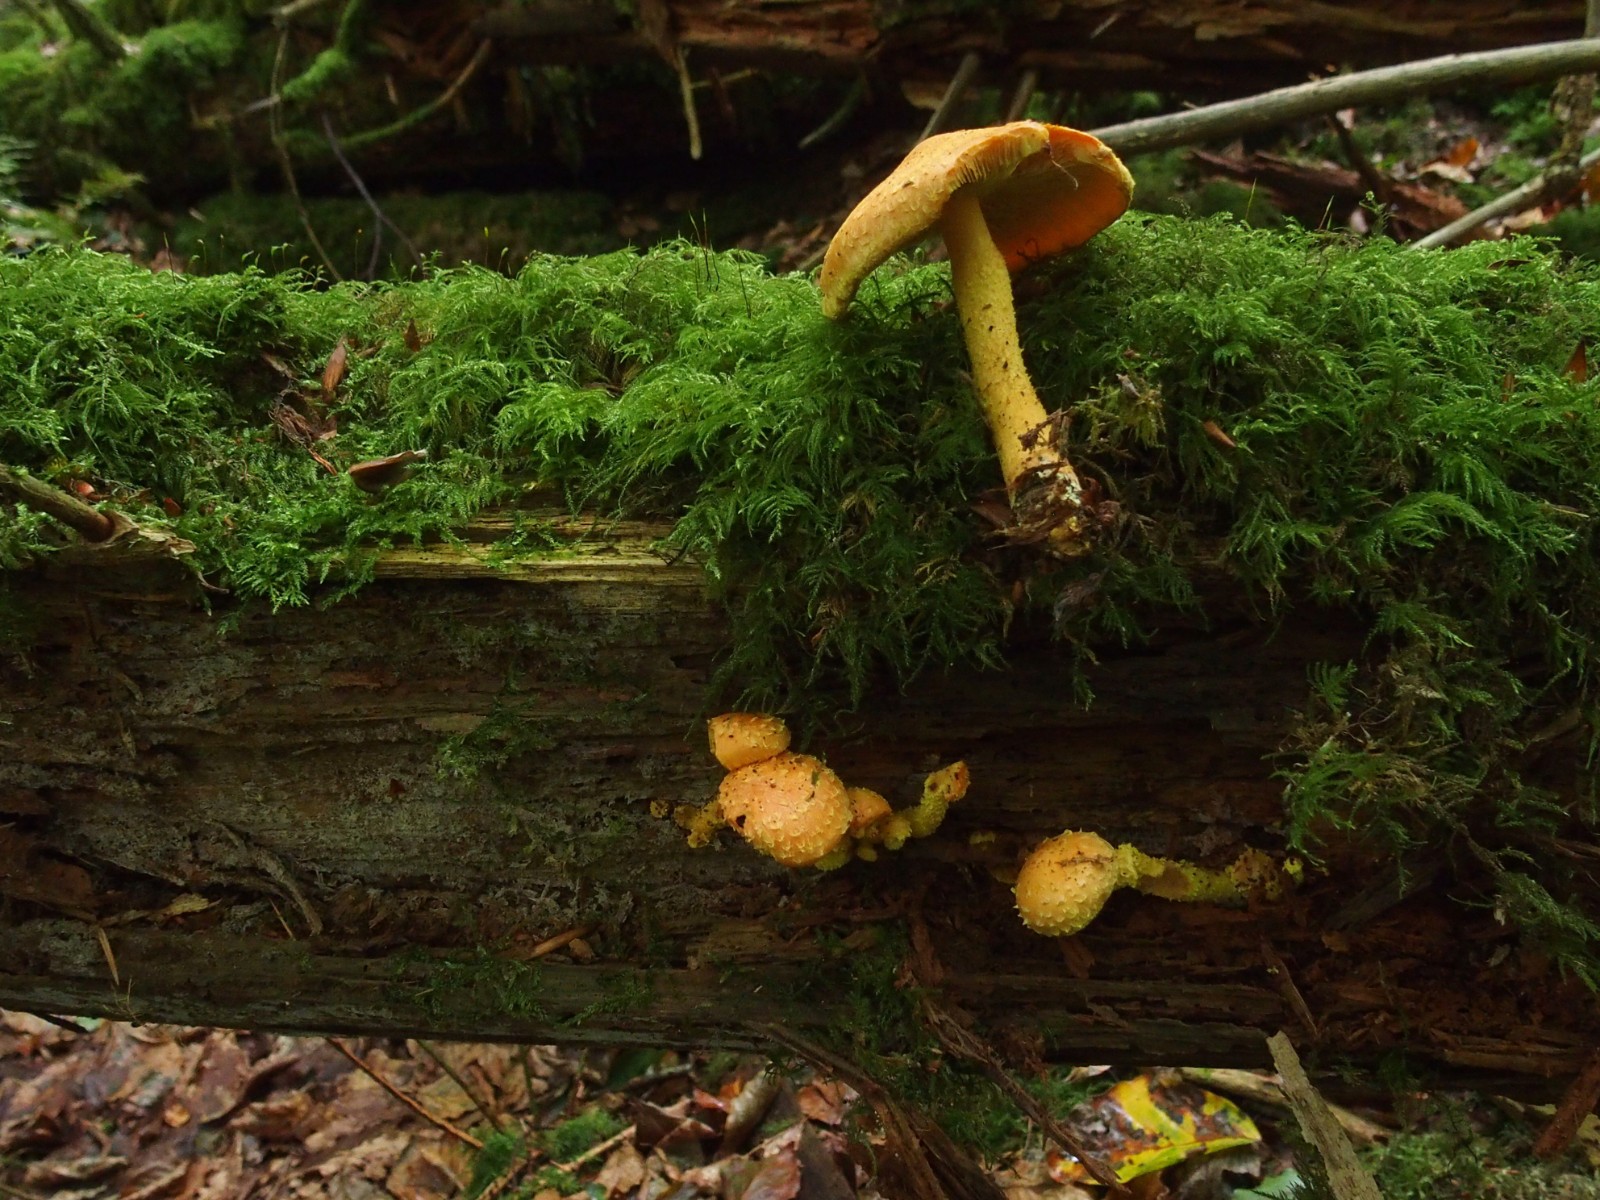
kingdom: Fungi
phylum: Basidiomycota
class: Agaricomycetes
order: Agaricales
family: Strophariaceae
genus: Pholiota
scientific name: Pholiota flammans
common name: flamme-skælhat
